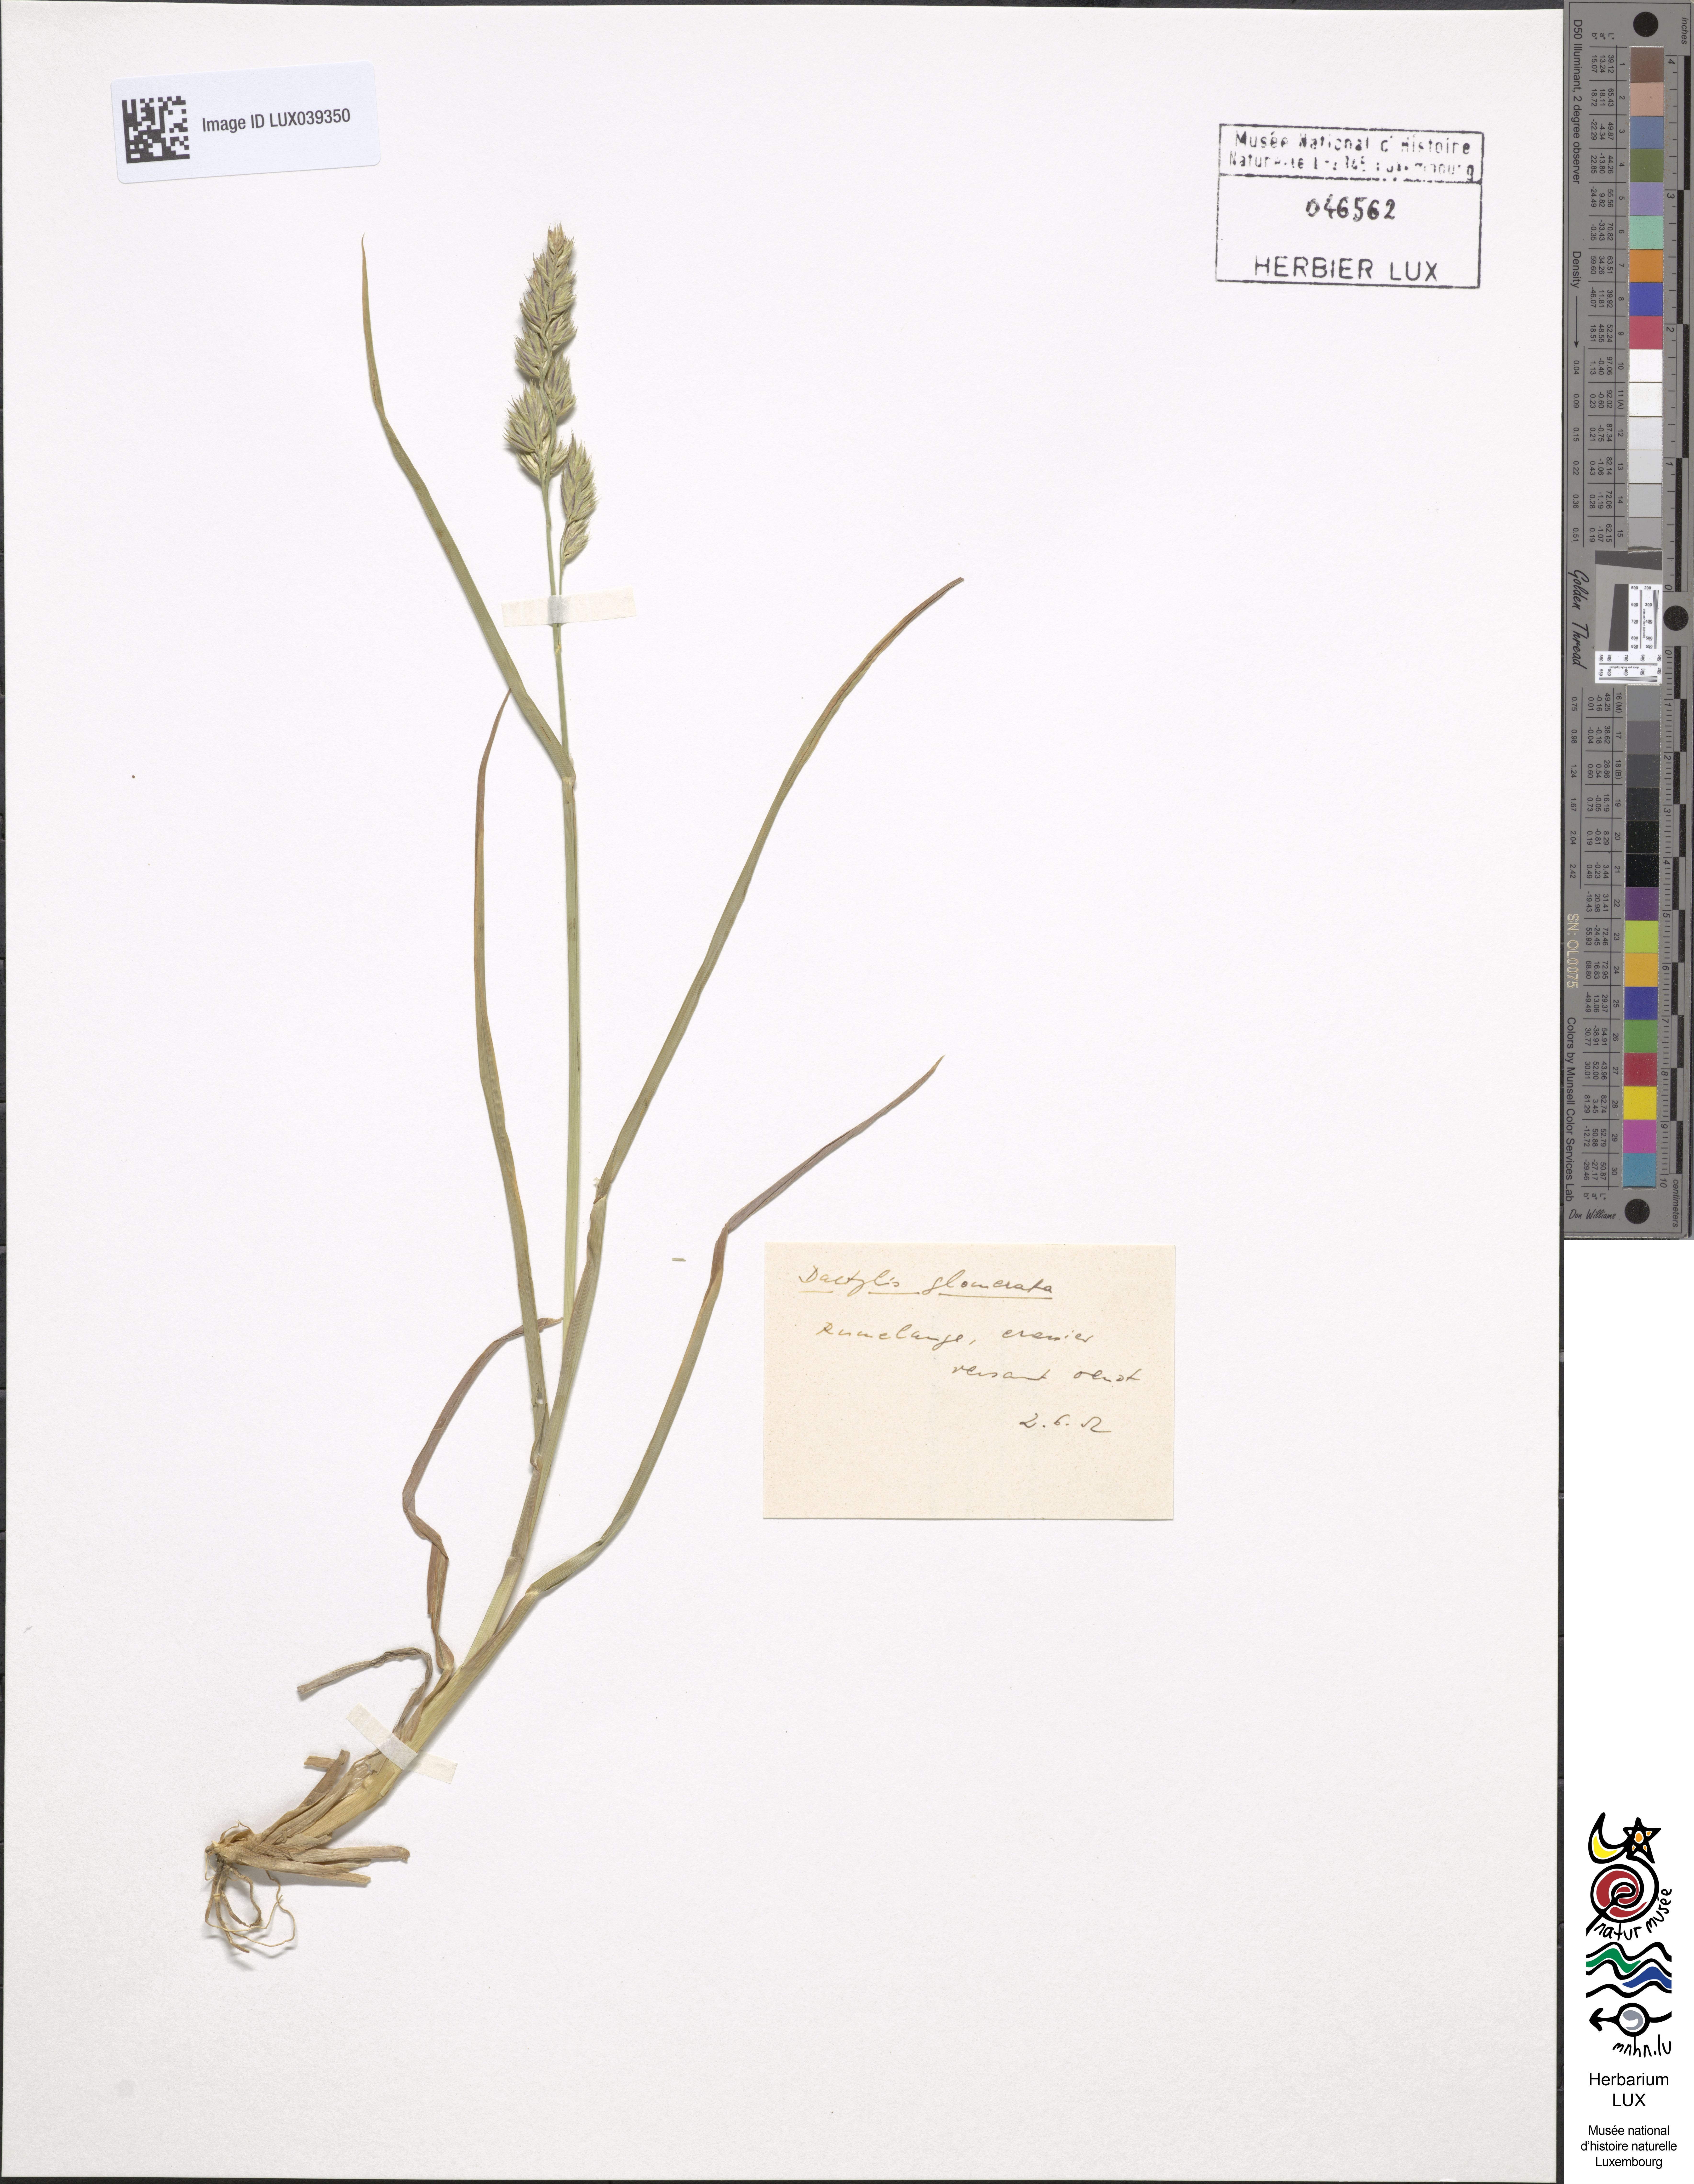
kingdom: Plantae
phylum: Tracheophyta
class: Liliopsida
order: Poales
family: Poaceae
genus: Dactylis
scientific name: Dactylis glomerata
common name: Orchardgrass
